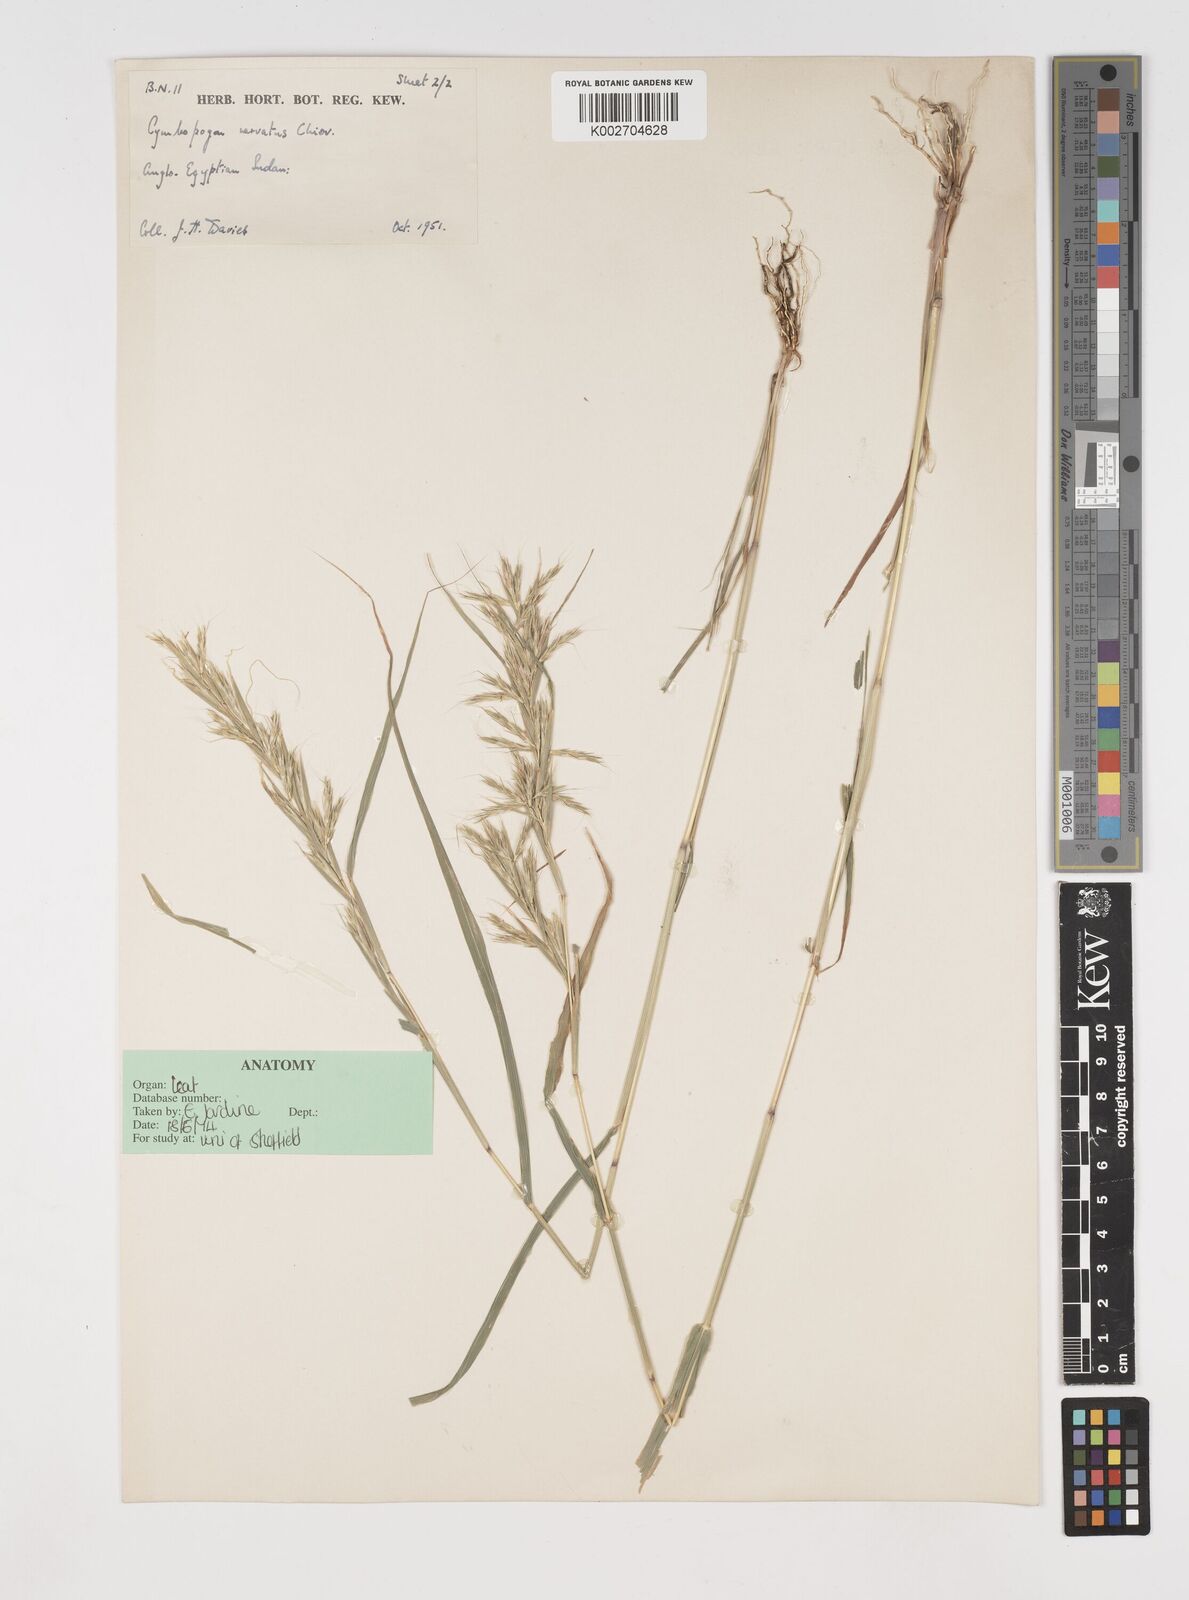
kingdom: Plantae
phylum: Tracheophyta
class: Liliopsida
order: Poales
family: Poaceae
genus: Cymbopogon
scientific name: Cymbopogon nervatus
